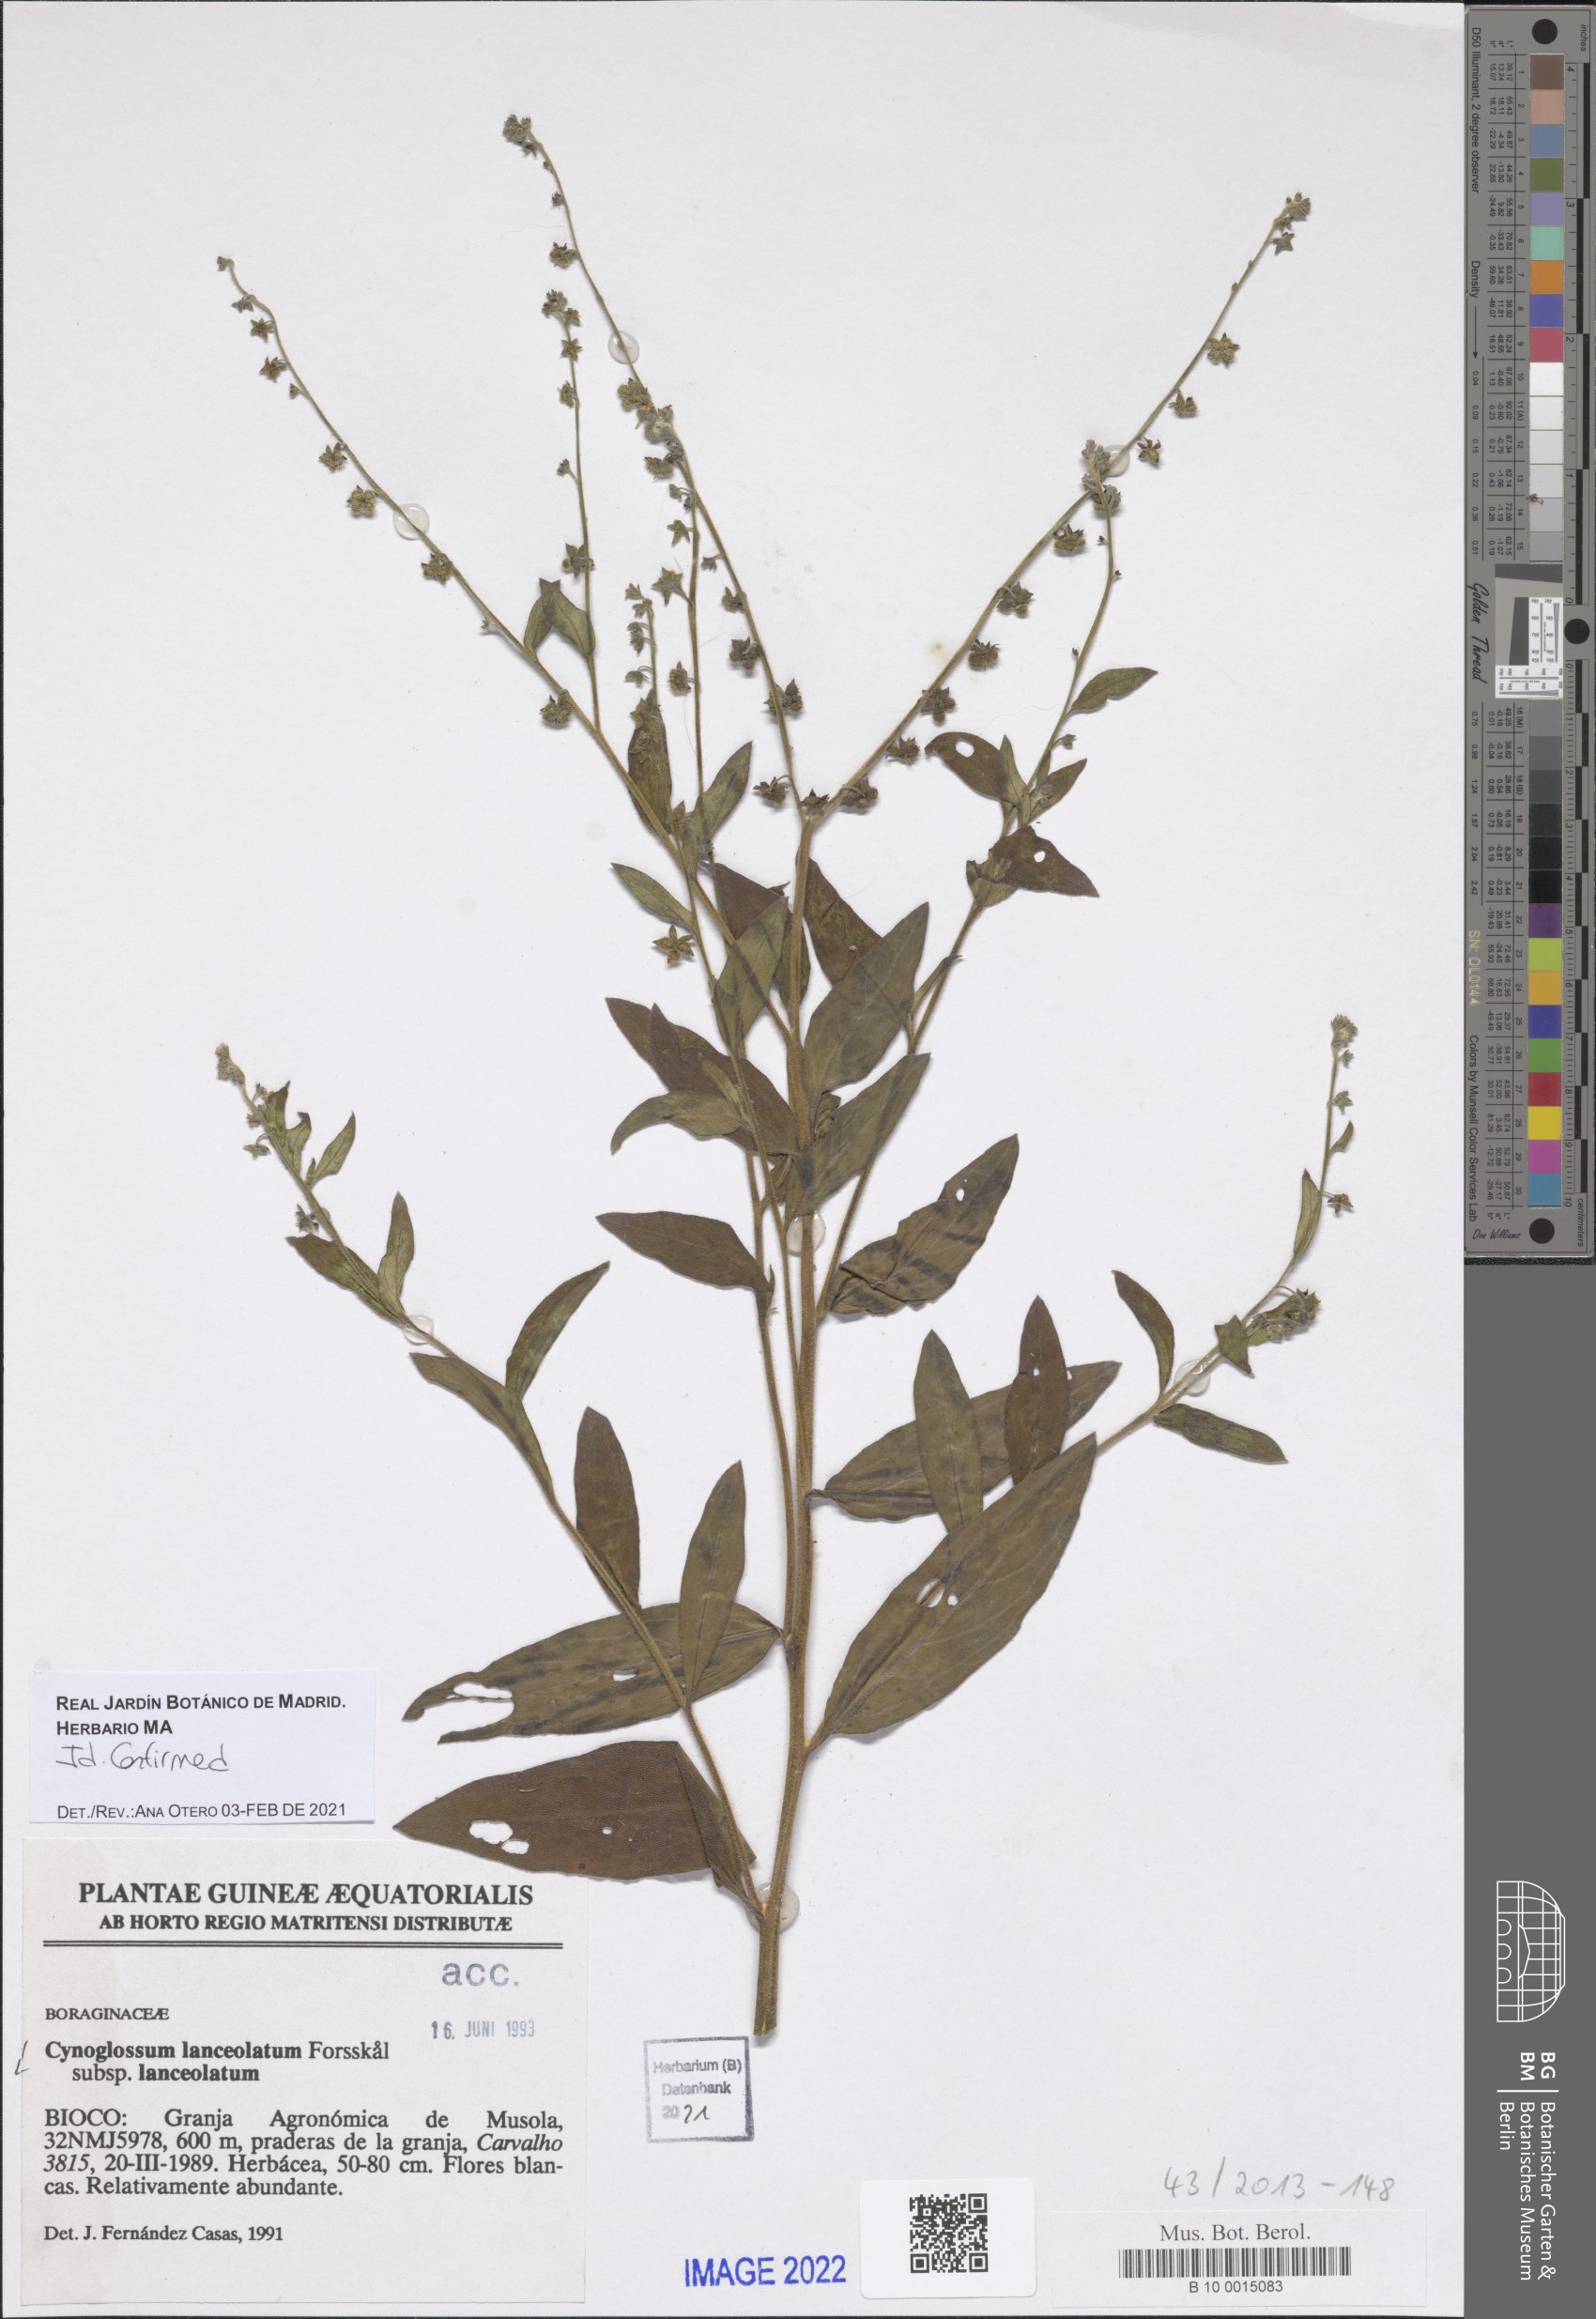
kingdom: Plantae
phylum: Tracheophyta
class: Magnoliopsida
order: Boraginales
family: Boraginaceae
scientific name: Boraginaceae
